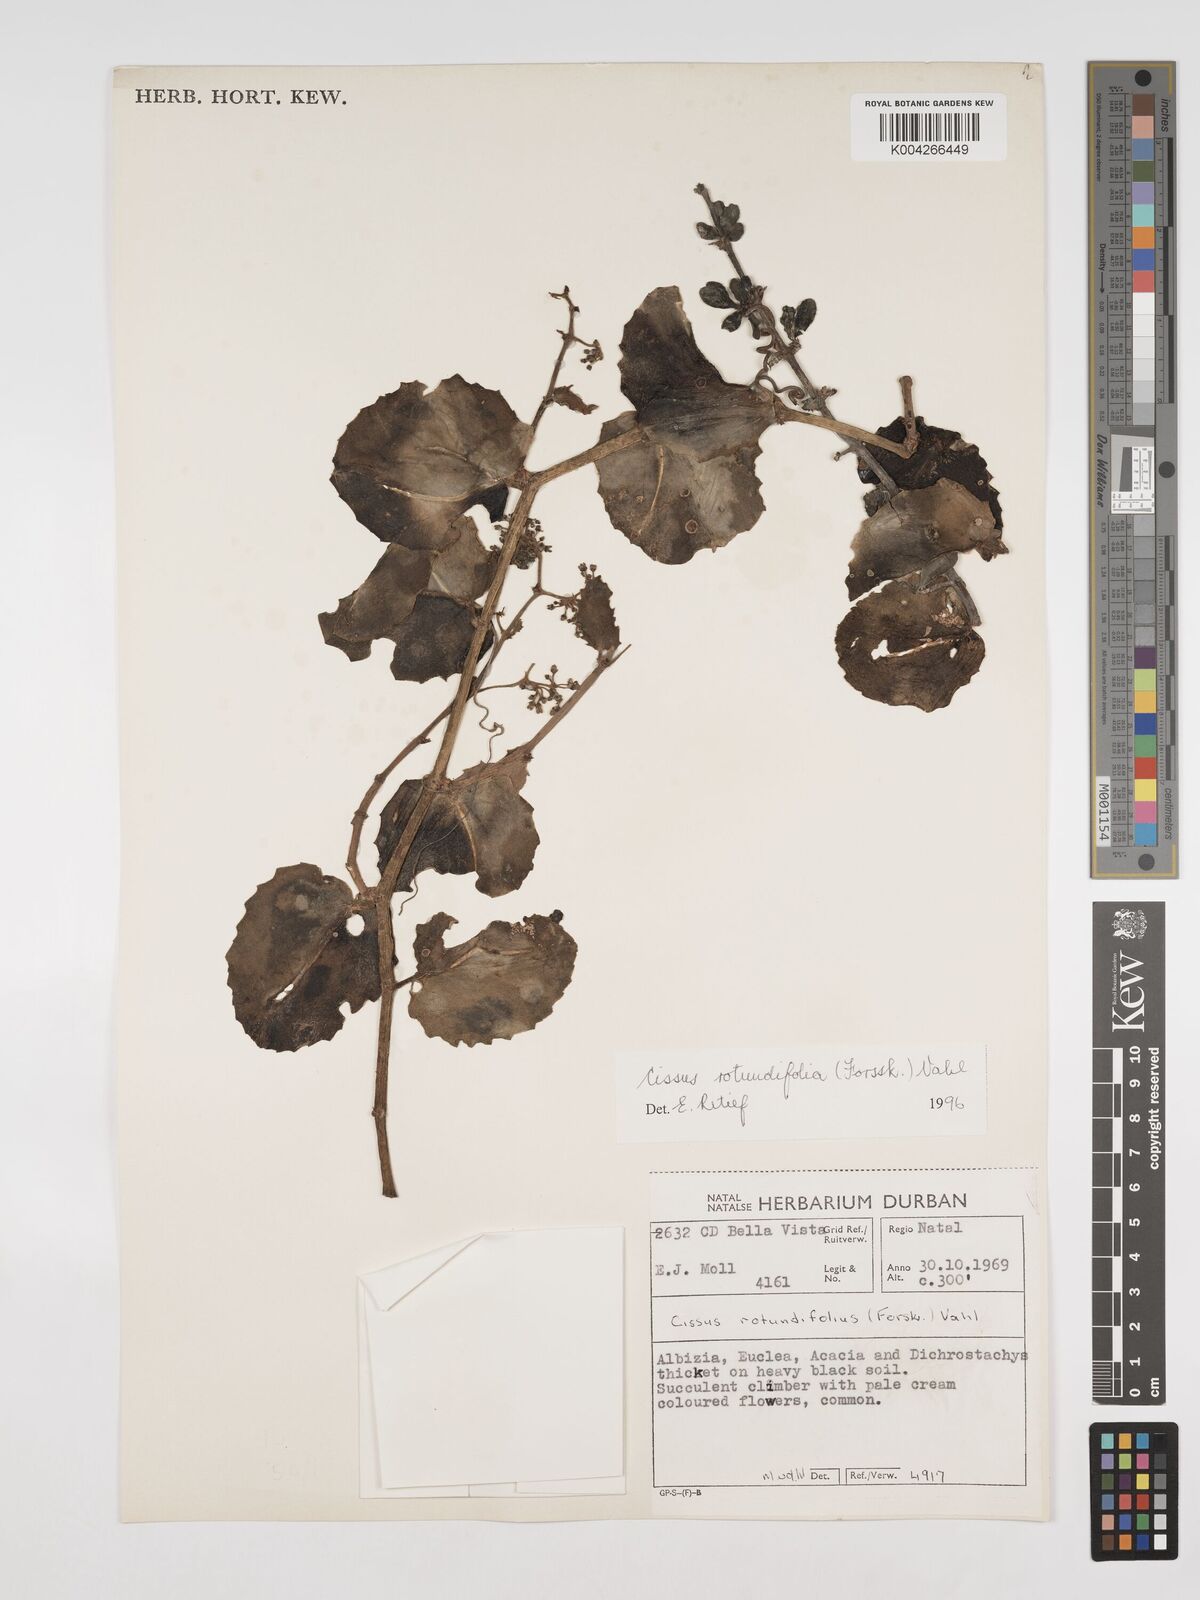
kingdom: Plantae
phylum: Tracheophyta
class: Magnoliopsida
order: Vitales
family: Vitaceae
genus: Cissus
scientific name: Cissus
